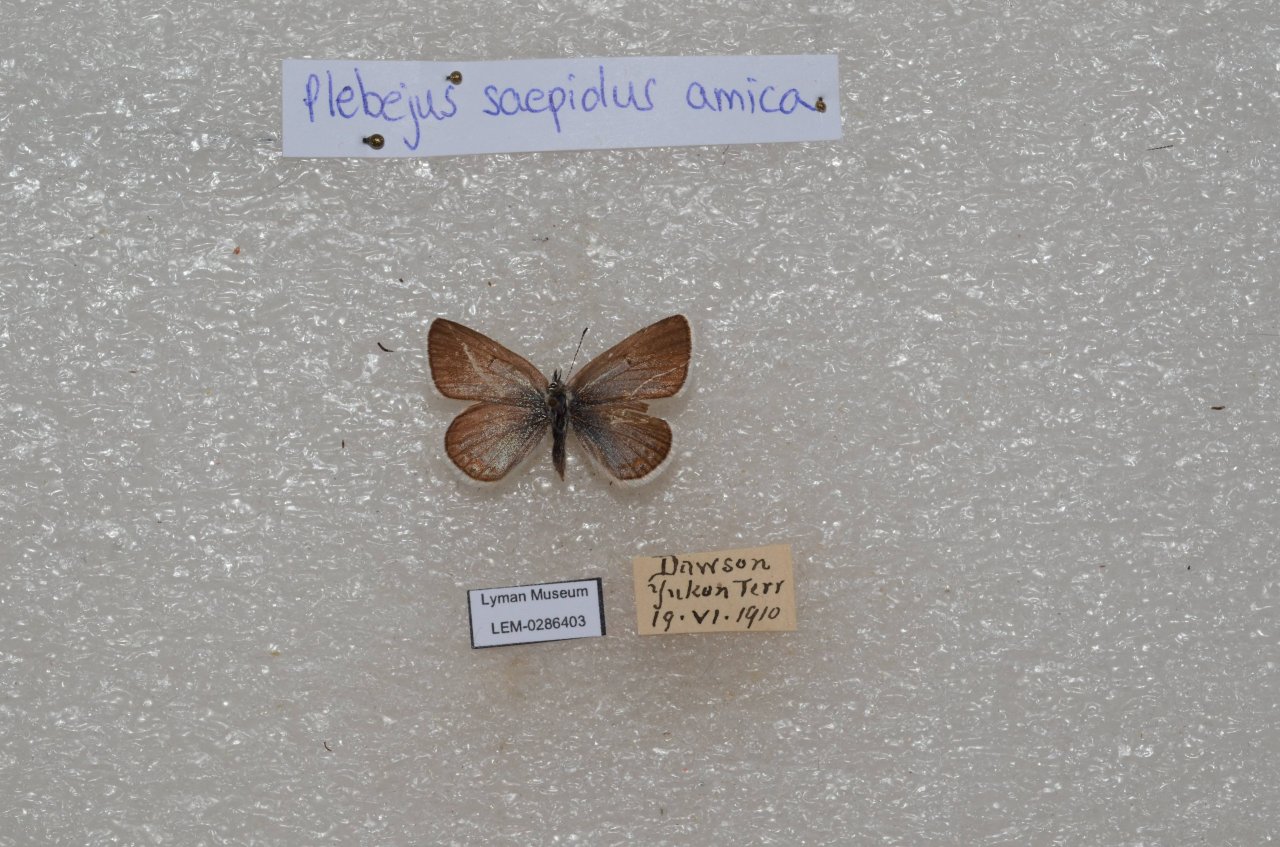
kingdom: Animalia
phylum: Arthropoda
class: Insecta
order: Lepidoptera
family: Lycaenidae
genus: Plebejus
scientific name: Plebejus saepiolus
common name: Greenish Blue
